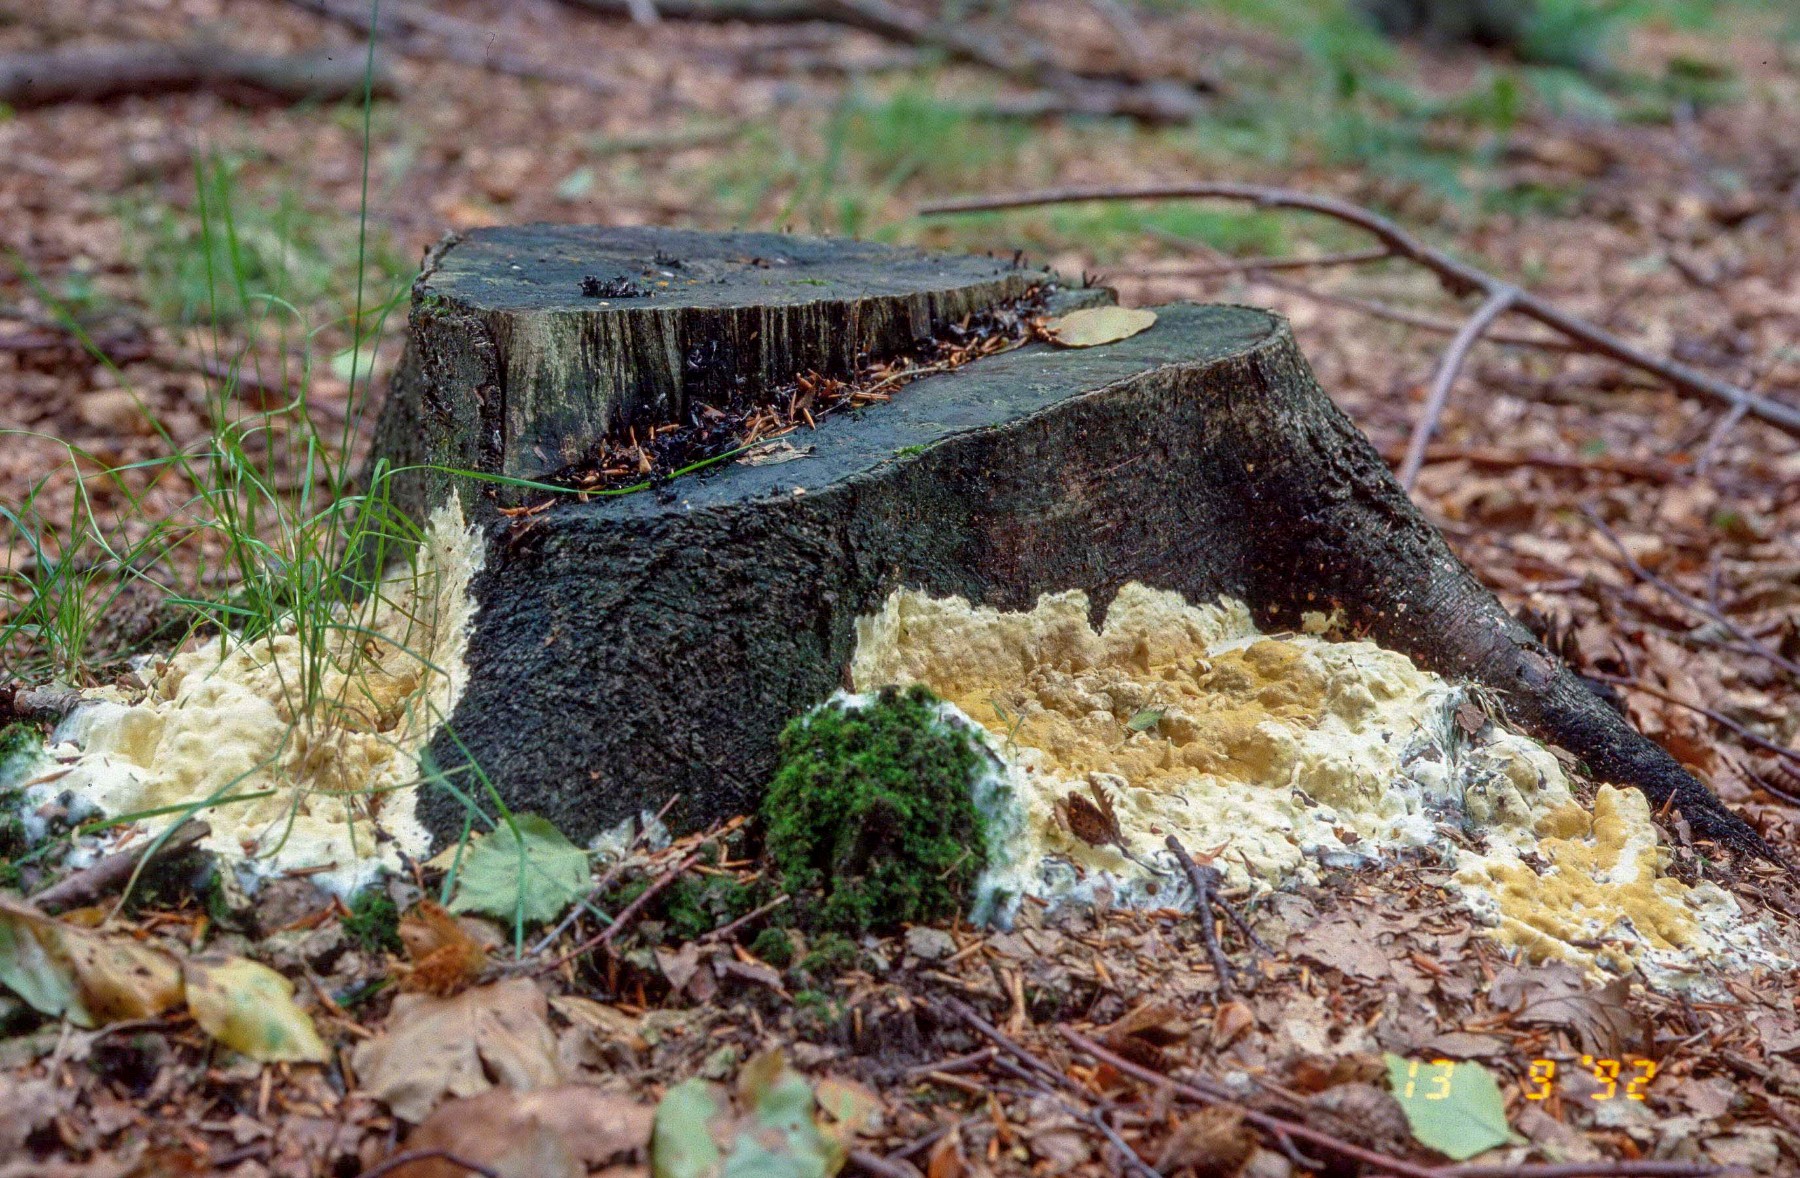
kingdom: Fungi
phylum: Ascomycota
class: Sordariomycetes
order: Hypocreales
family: Hypocreaceae
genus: Trichoderma
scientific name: Trichoderma citrinum
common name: udbredt kødkerne
